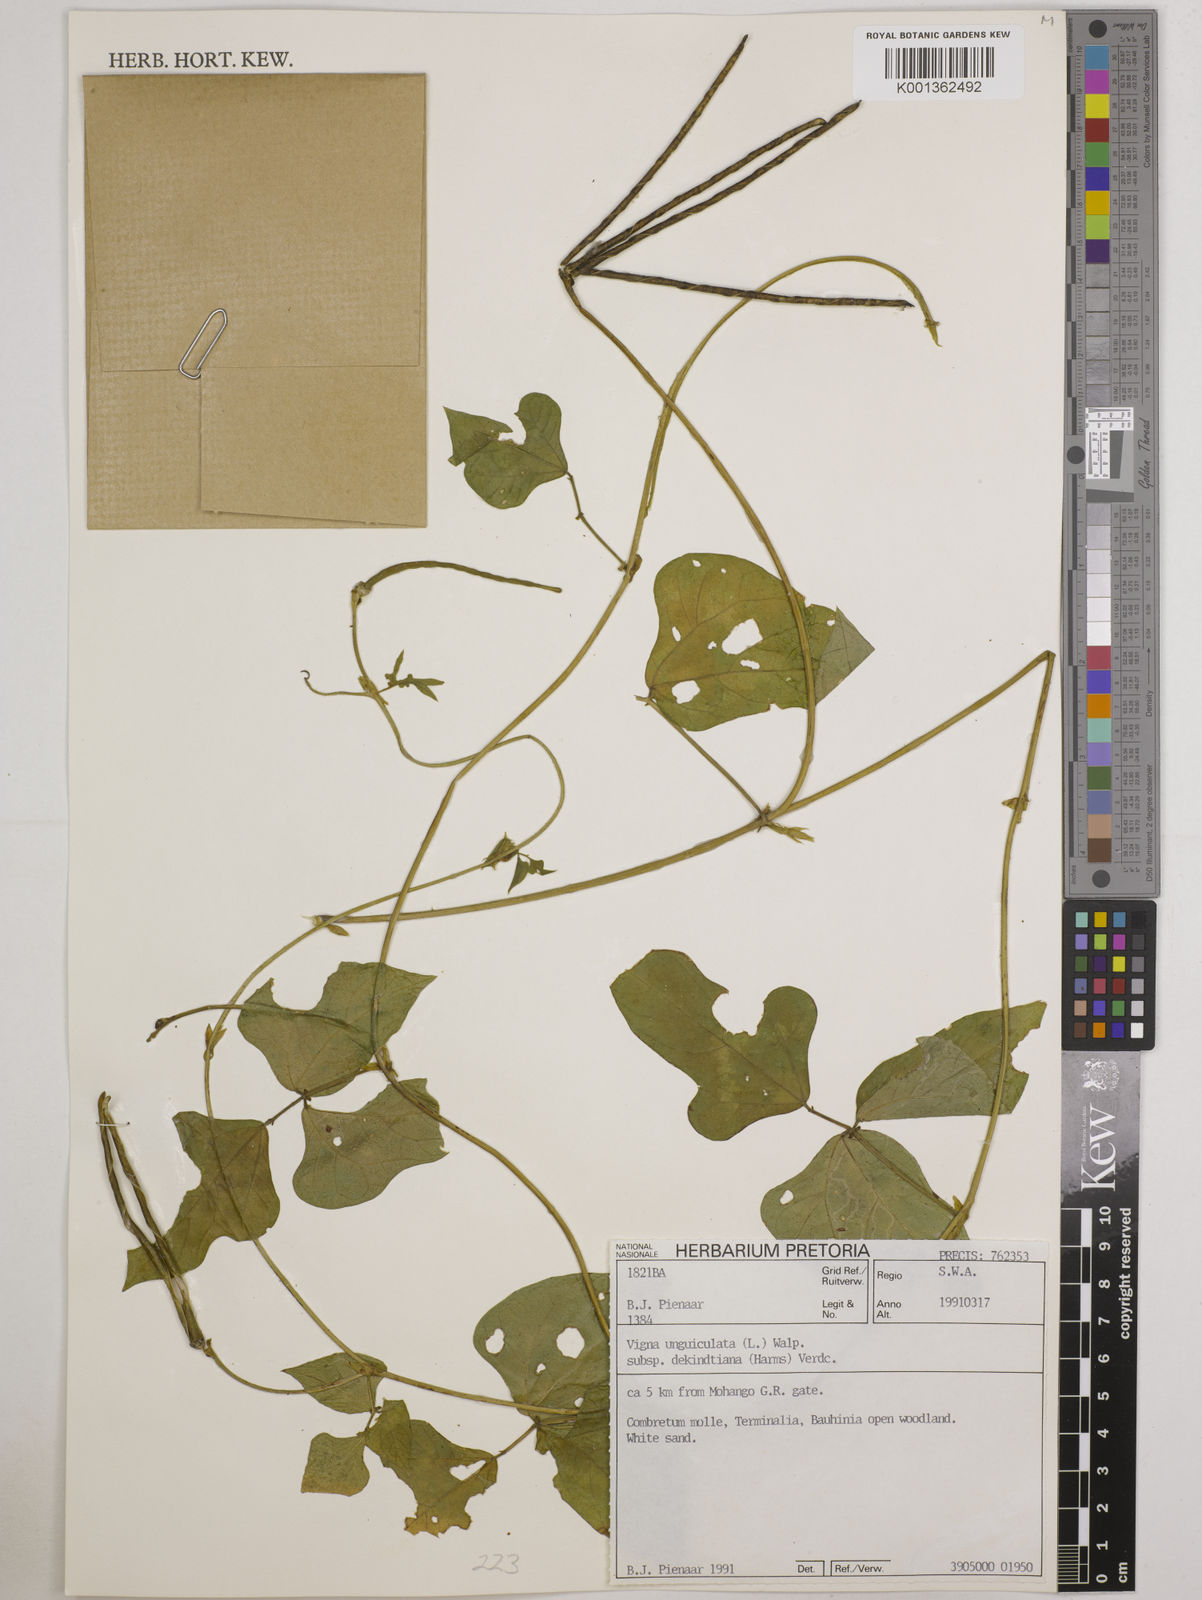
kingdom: Plantae
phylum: Tracheophyta
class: Magnoliopsida
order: Fabales
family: Fabaceae
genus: Vigna
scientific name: Vigna
